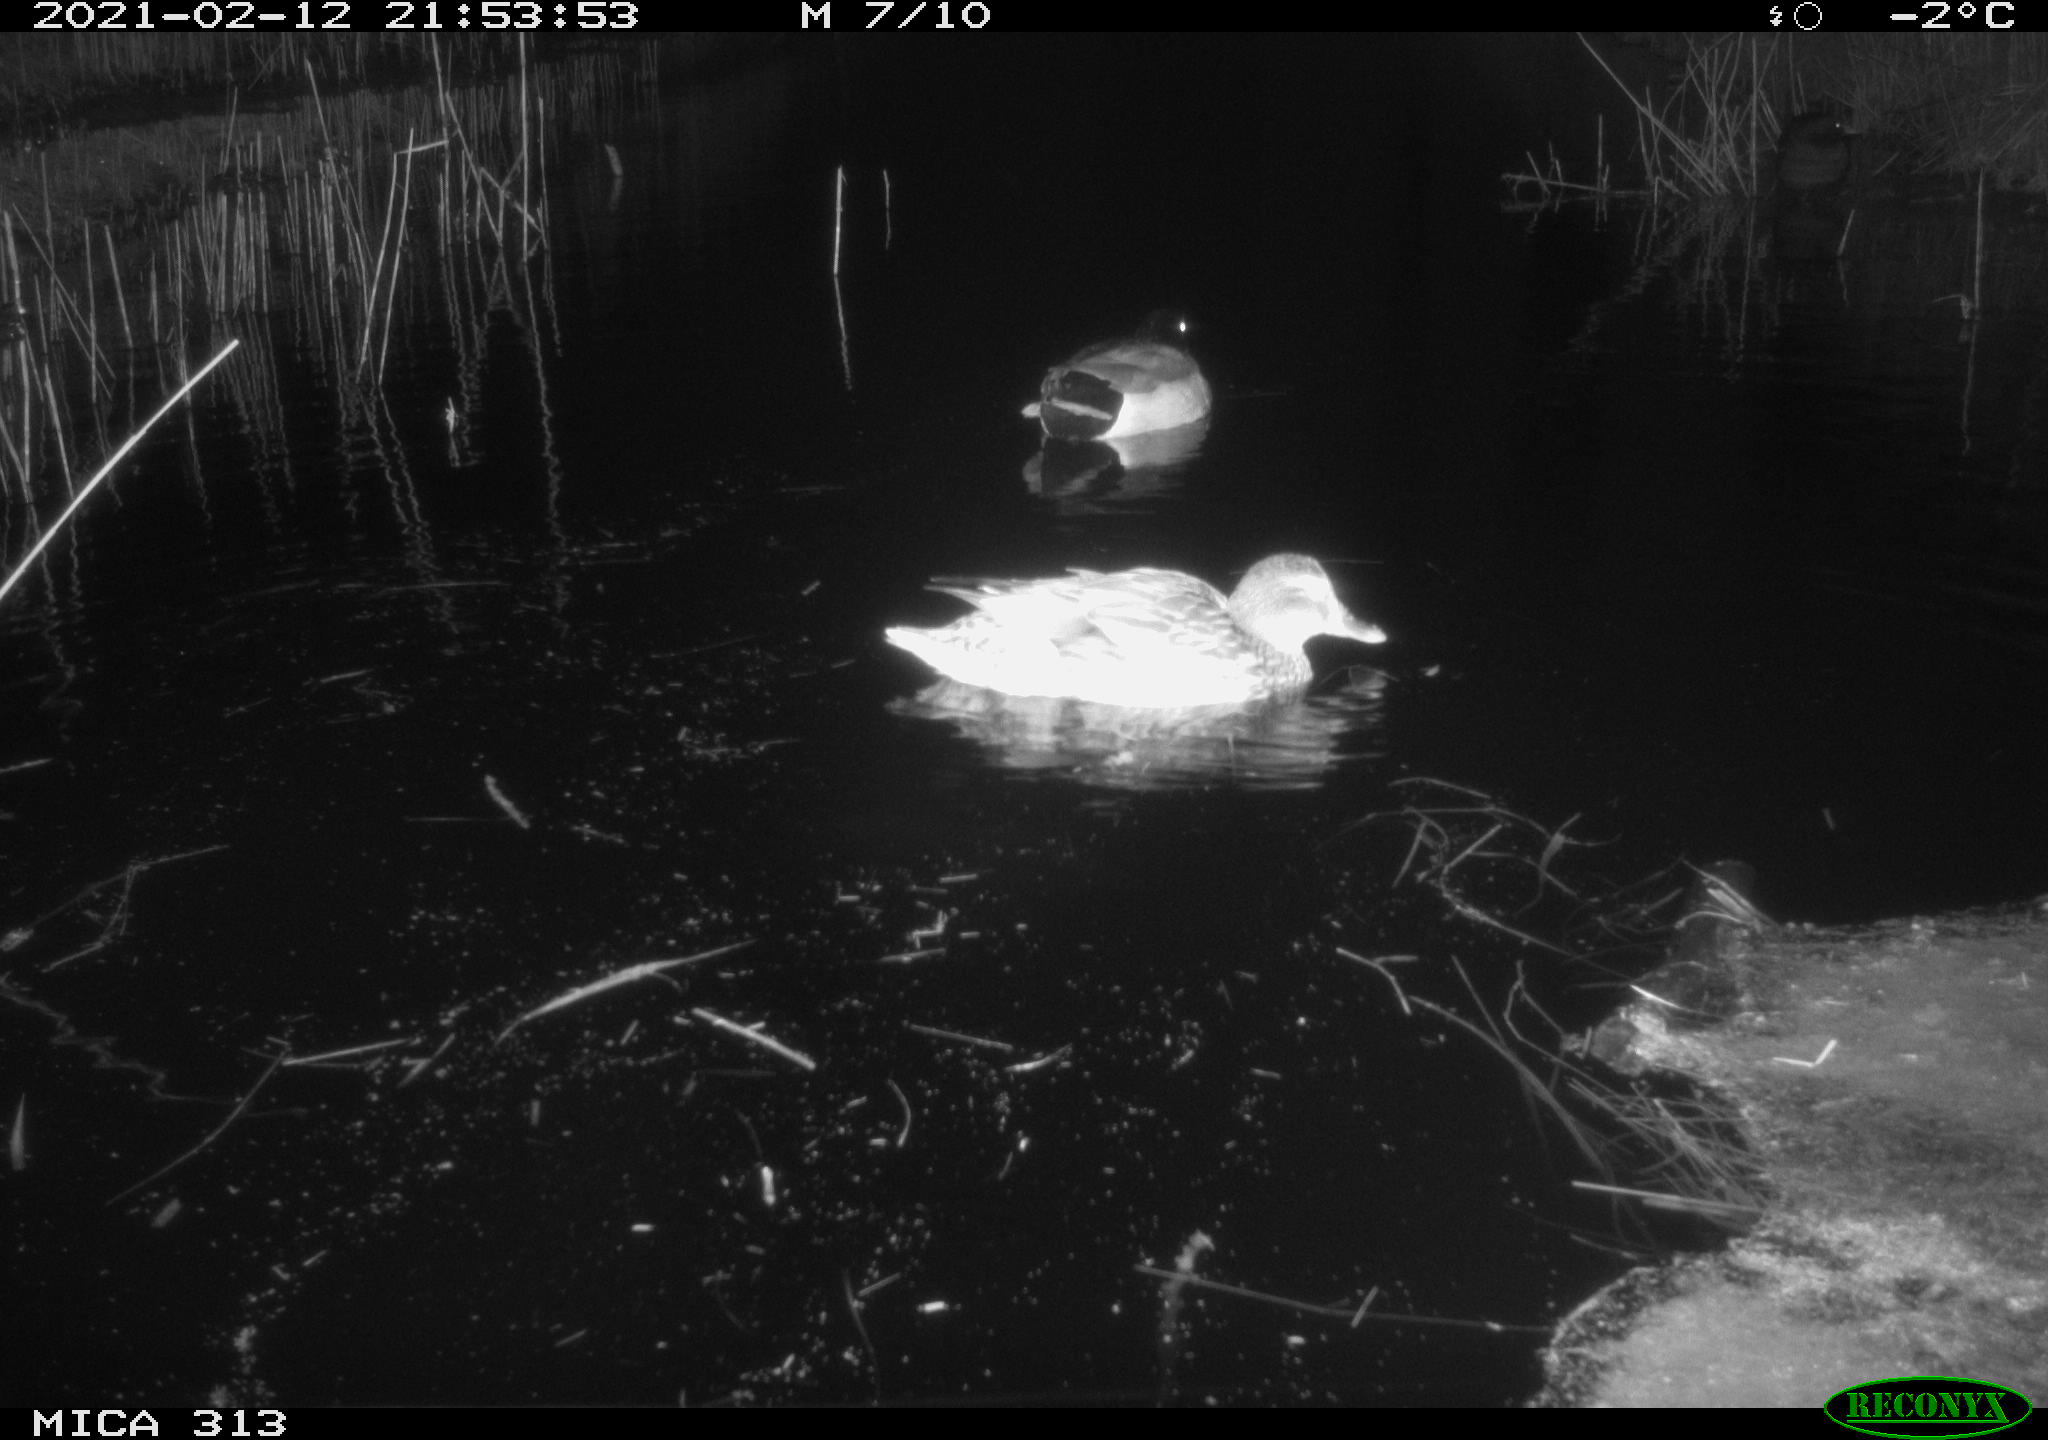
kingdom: Animalia
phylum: Chordata
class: Aves
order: Anseriformes
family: Anatidae
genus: Anas
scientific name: Anas
